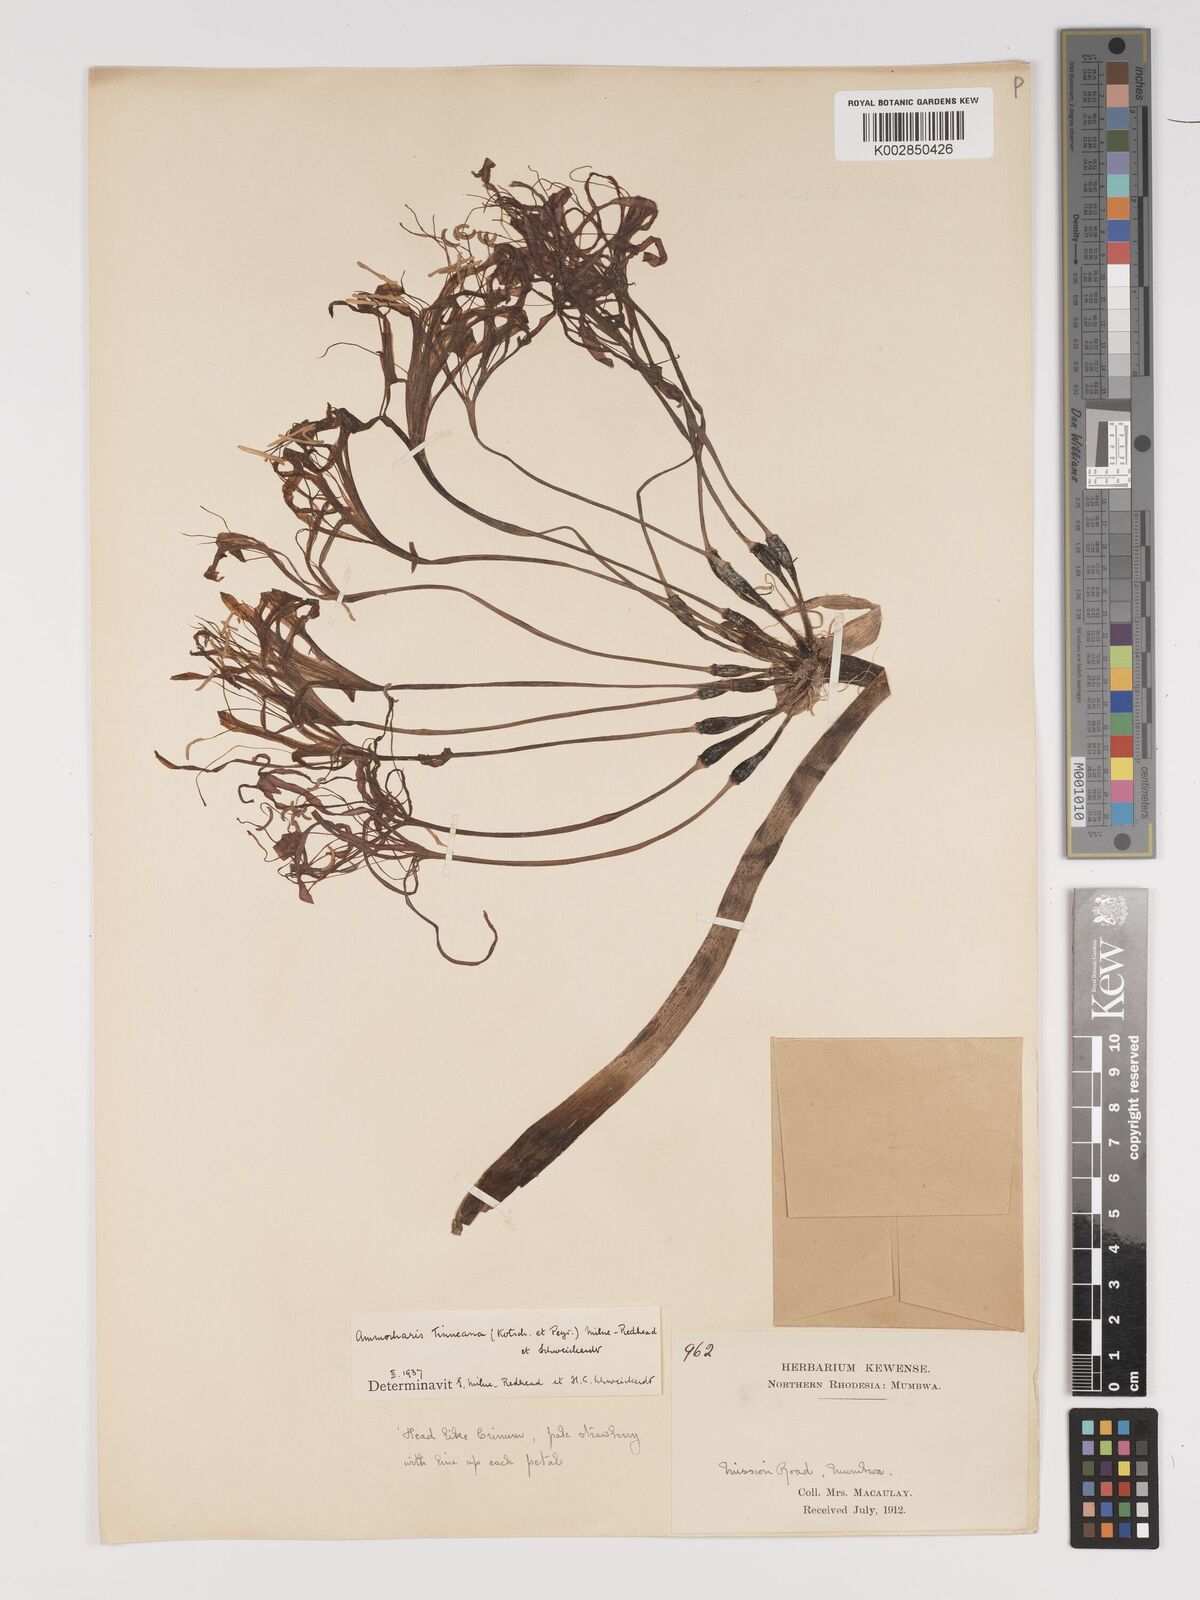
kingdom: Plantae
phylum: Tracheophyta
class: Liliopsida
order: Asparagales
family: Amaryllidaceae
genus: Ammocharis
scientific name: Ammocharis tinneana
